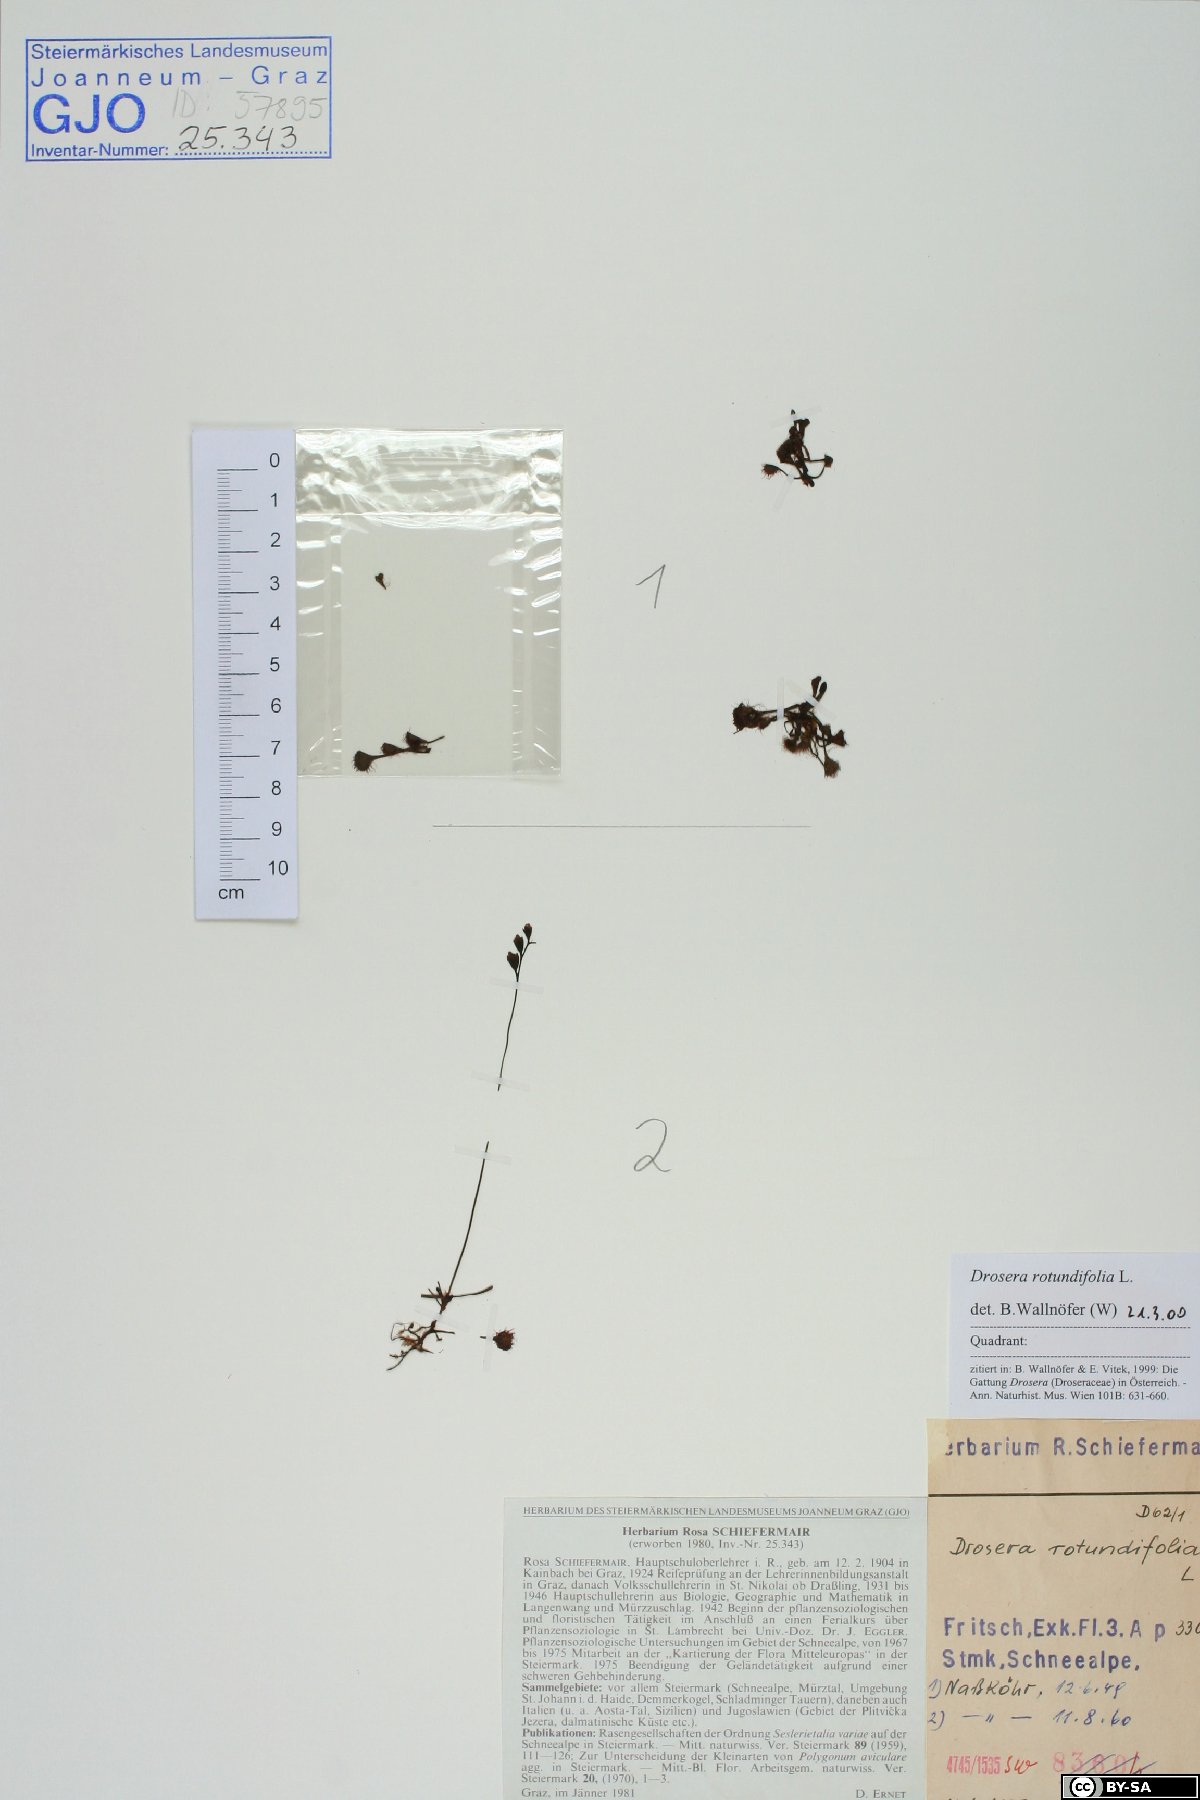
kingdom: Plantae
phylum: Tracheophyta
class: Magnoliopsida
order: Caryophyllales
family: Droseraceae
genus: Drosera
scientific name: Drosera rotundifolia
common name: Round-leaved sundew
